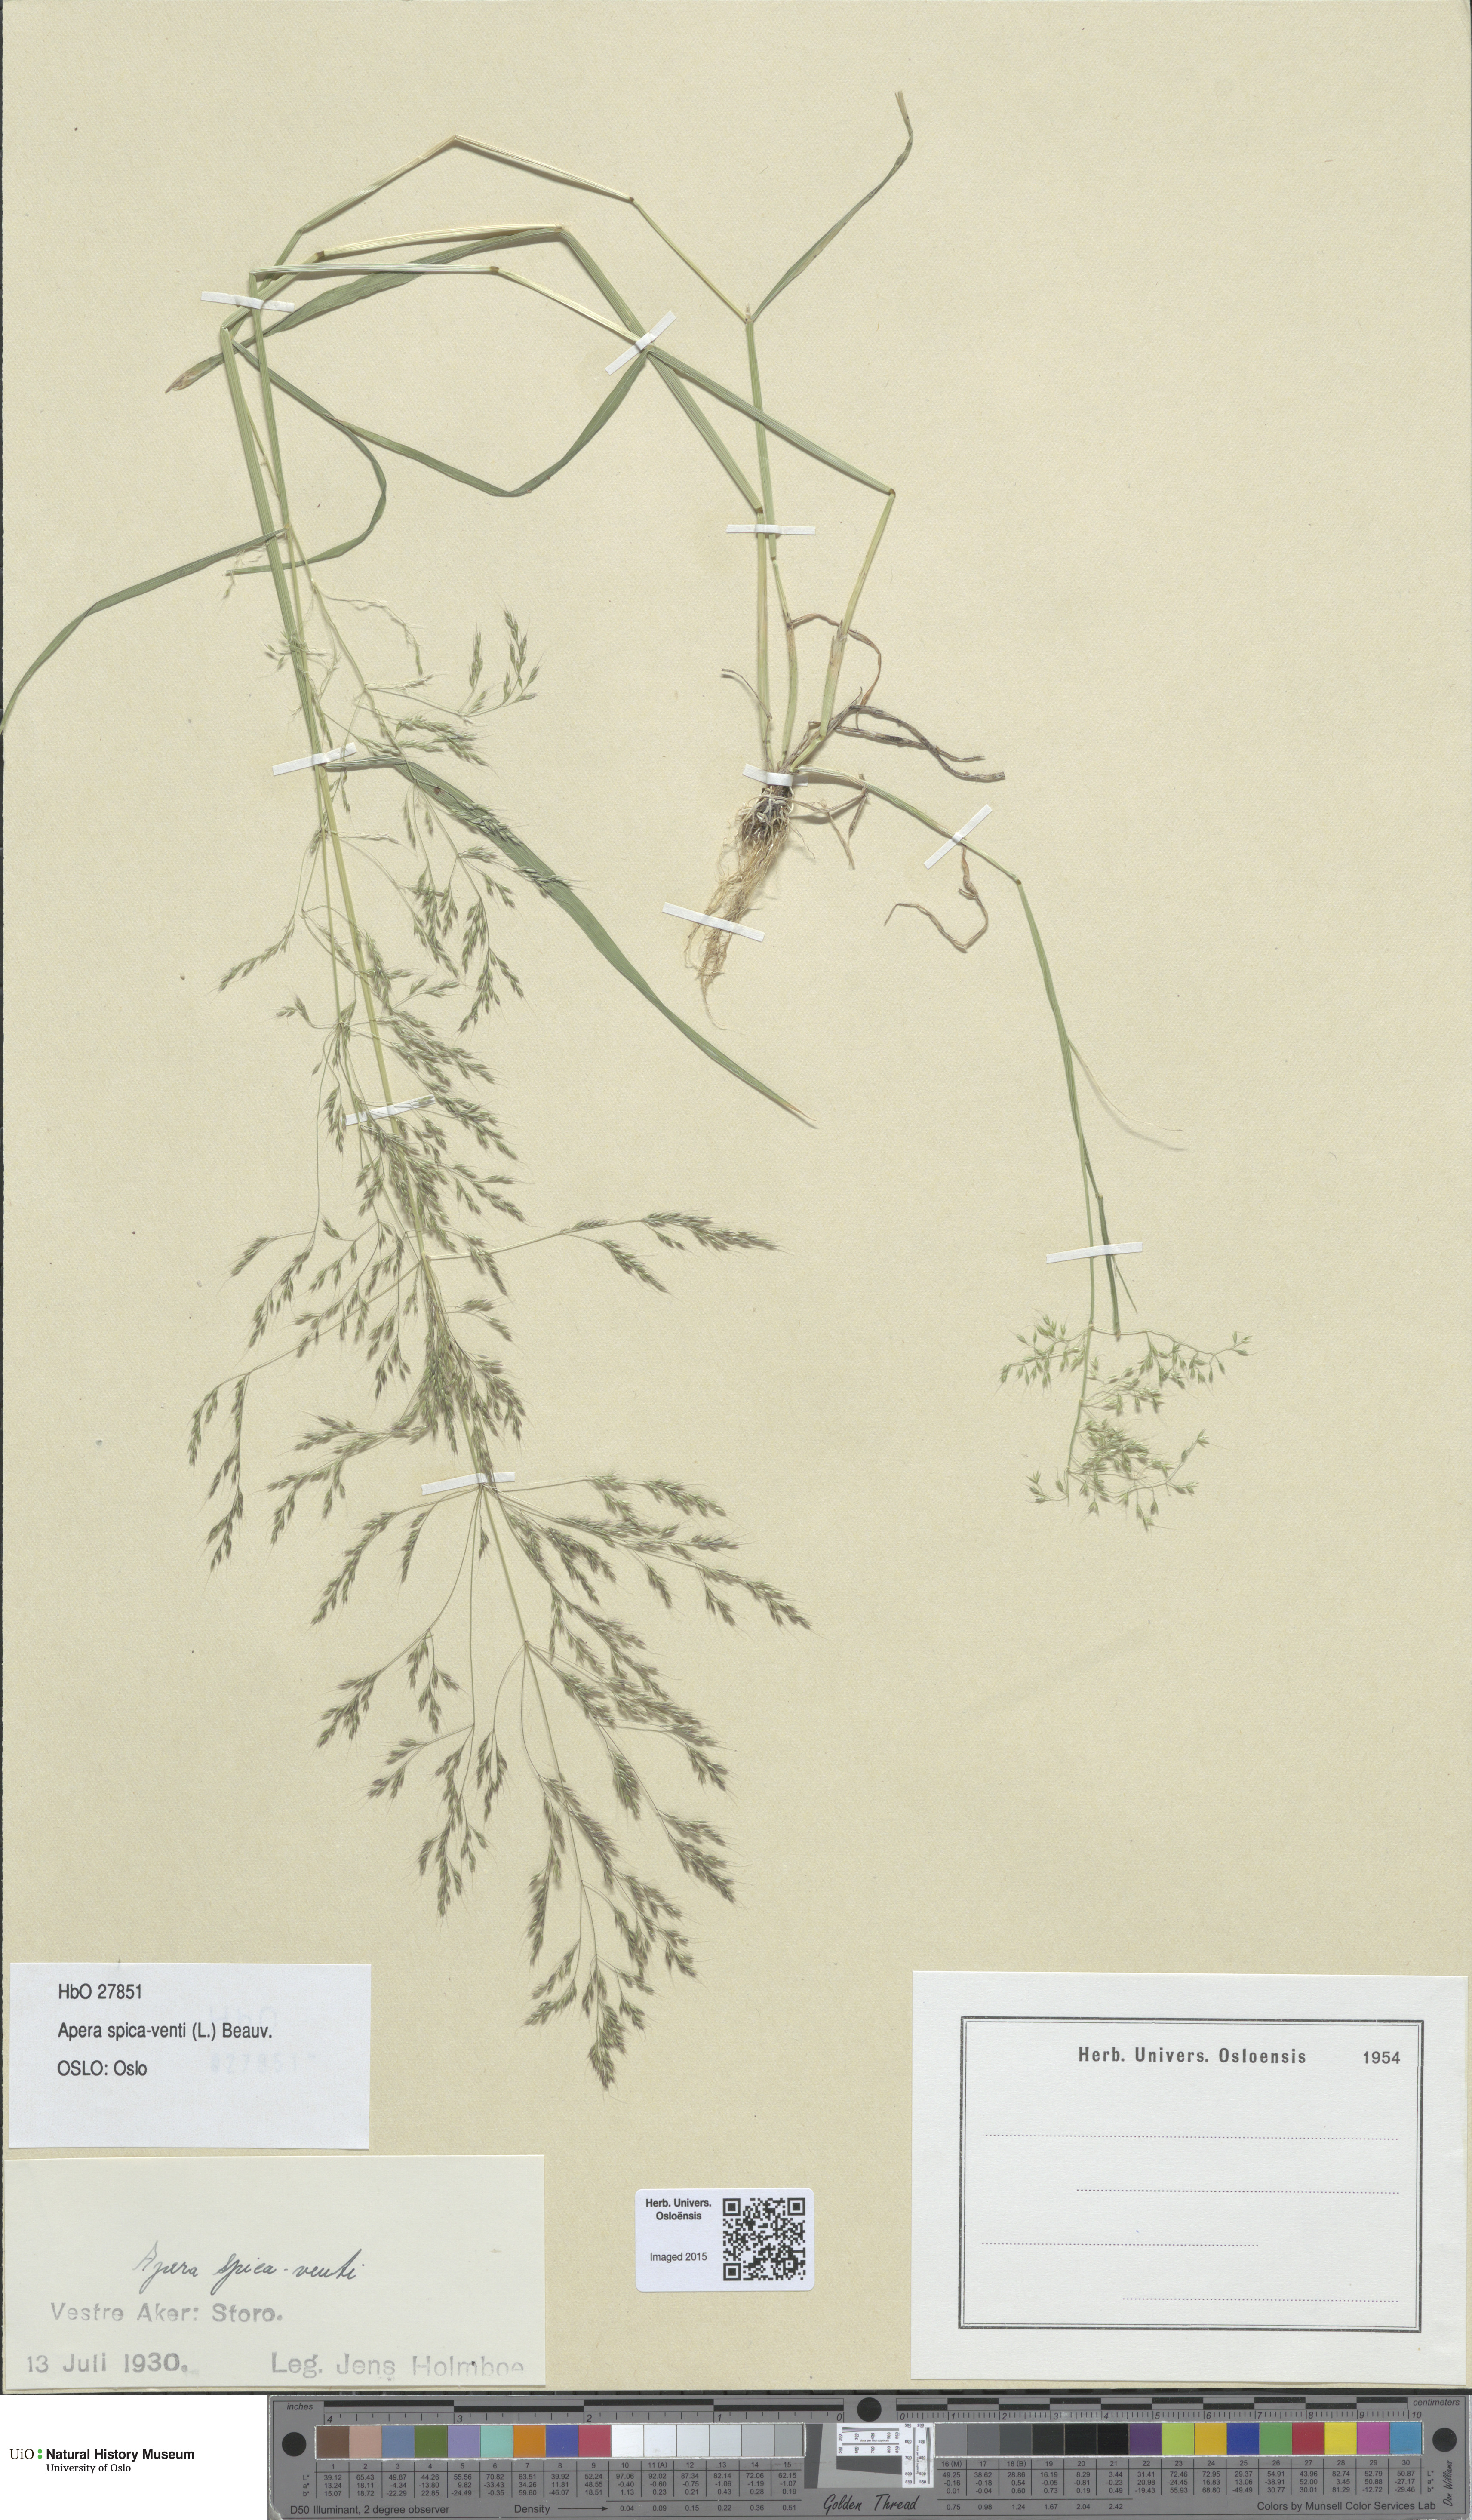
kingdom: Plantae
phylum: Tracheophyta
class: Liliopsida
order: Poales
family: Poaceae
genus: Apera
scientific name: Apera spica-venti
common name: Loose silky-bent
